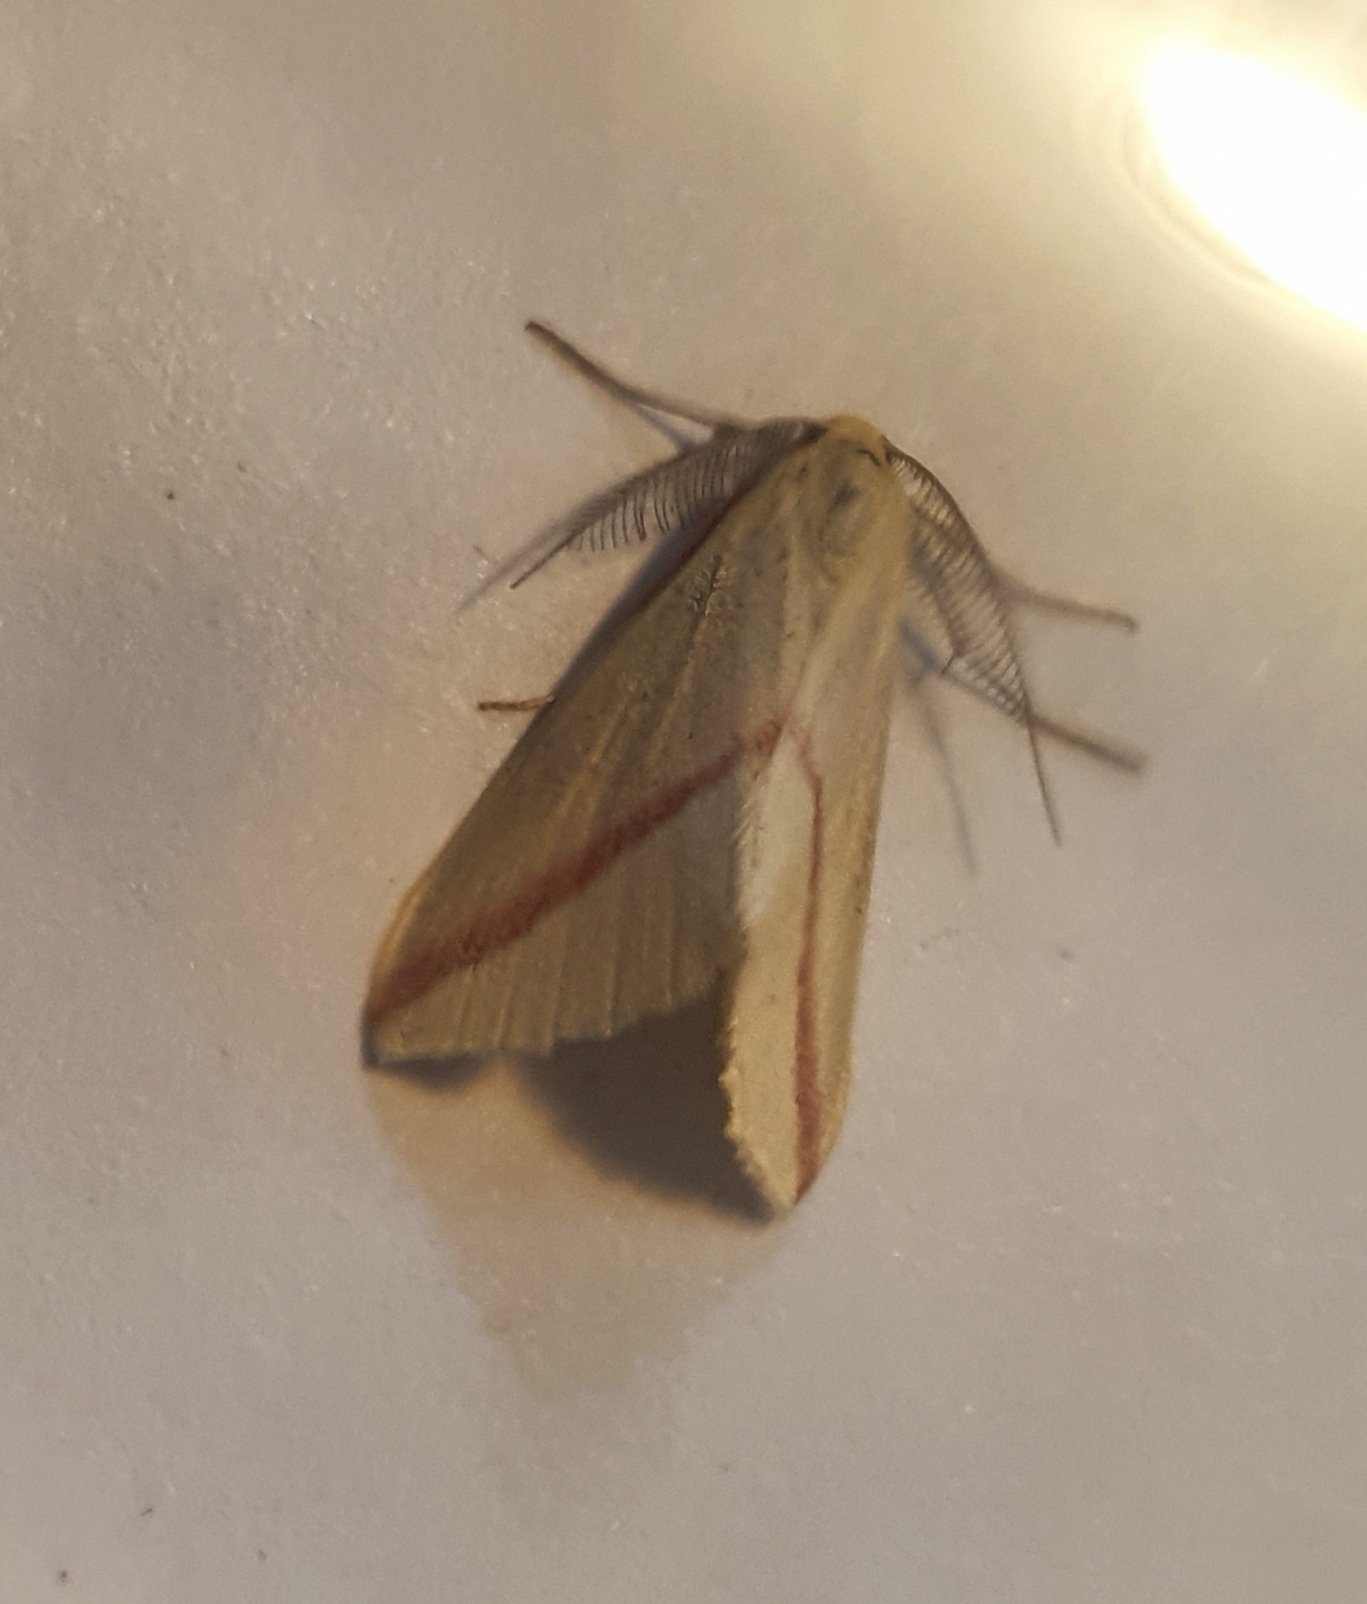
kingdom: Animalia
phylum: Arthropoda
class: Insecta
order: Lepidoptera
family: Geometridae
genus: Rhodometra
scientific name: Rhodometra sacraria
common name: Vestalinden
